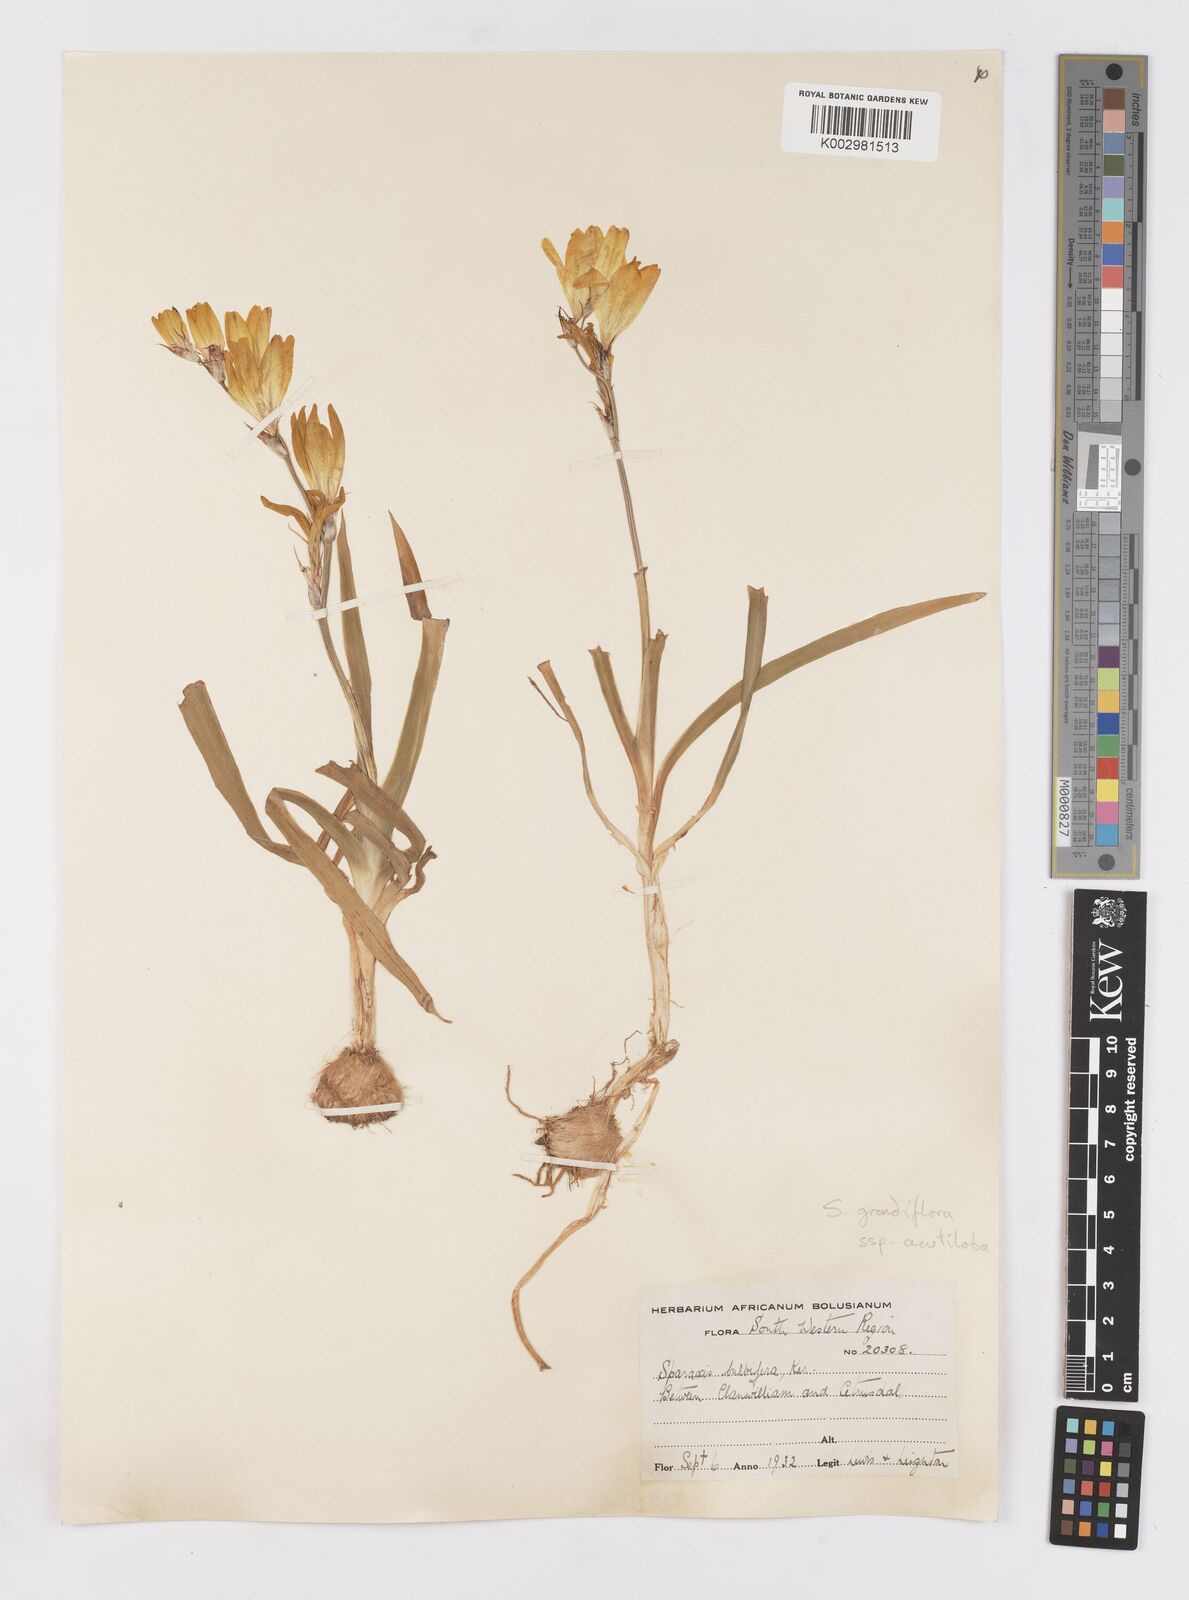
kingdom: Plantae
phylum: Tracheophyta
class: Liliopsida
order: Asparagales
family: Iridaceae
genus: Sparaxis
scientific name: Sparaxis grandiflora
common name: Plain harlequin-flower
